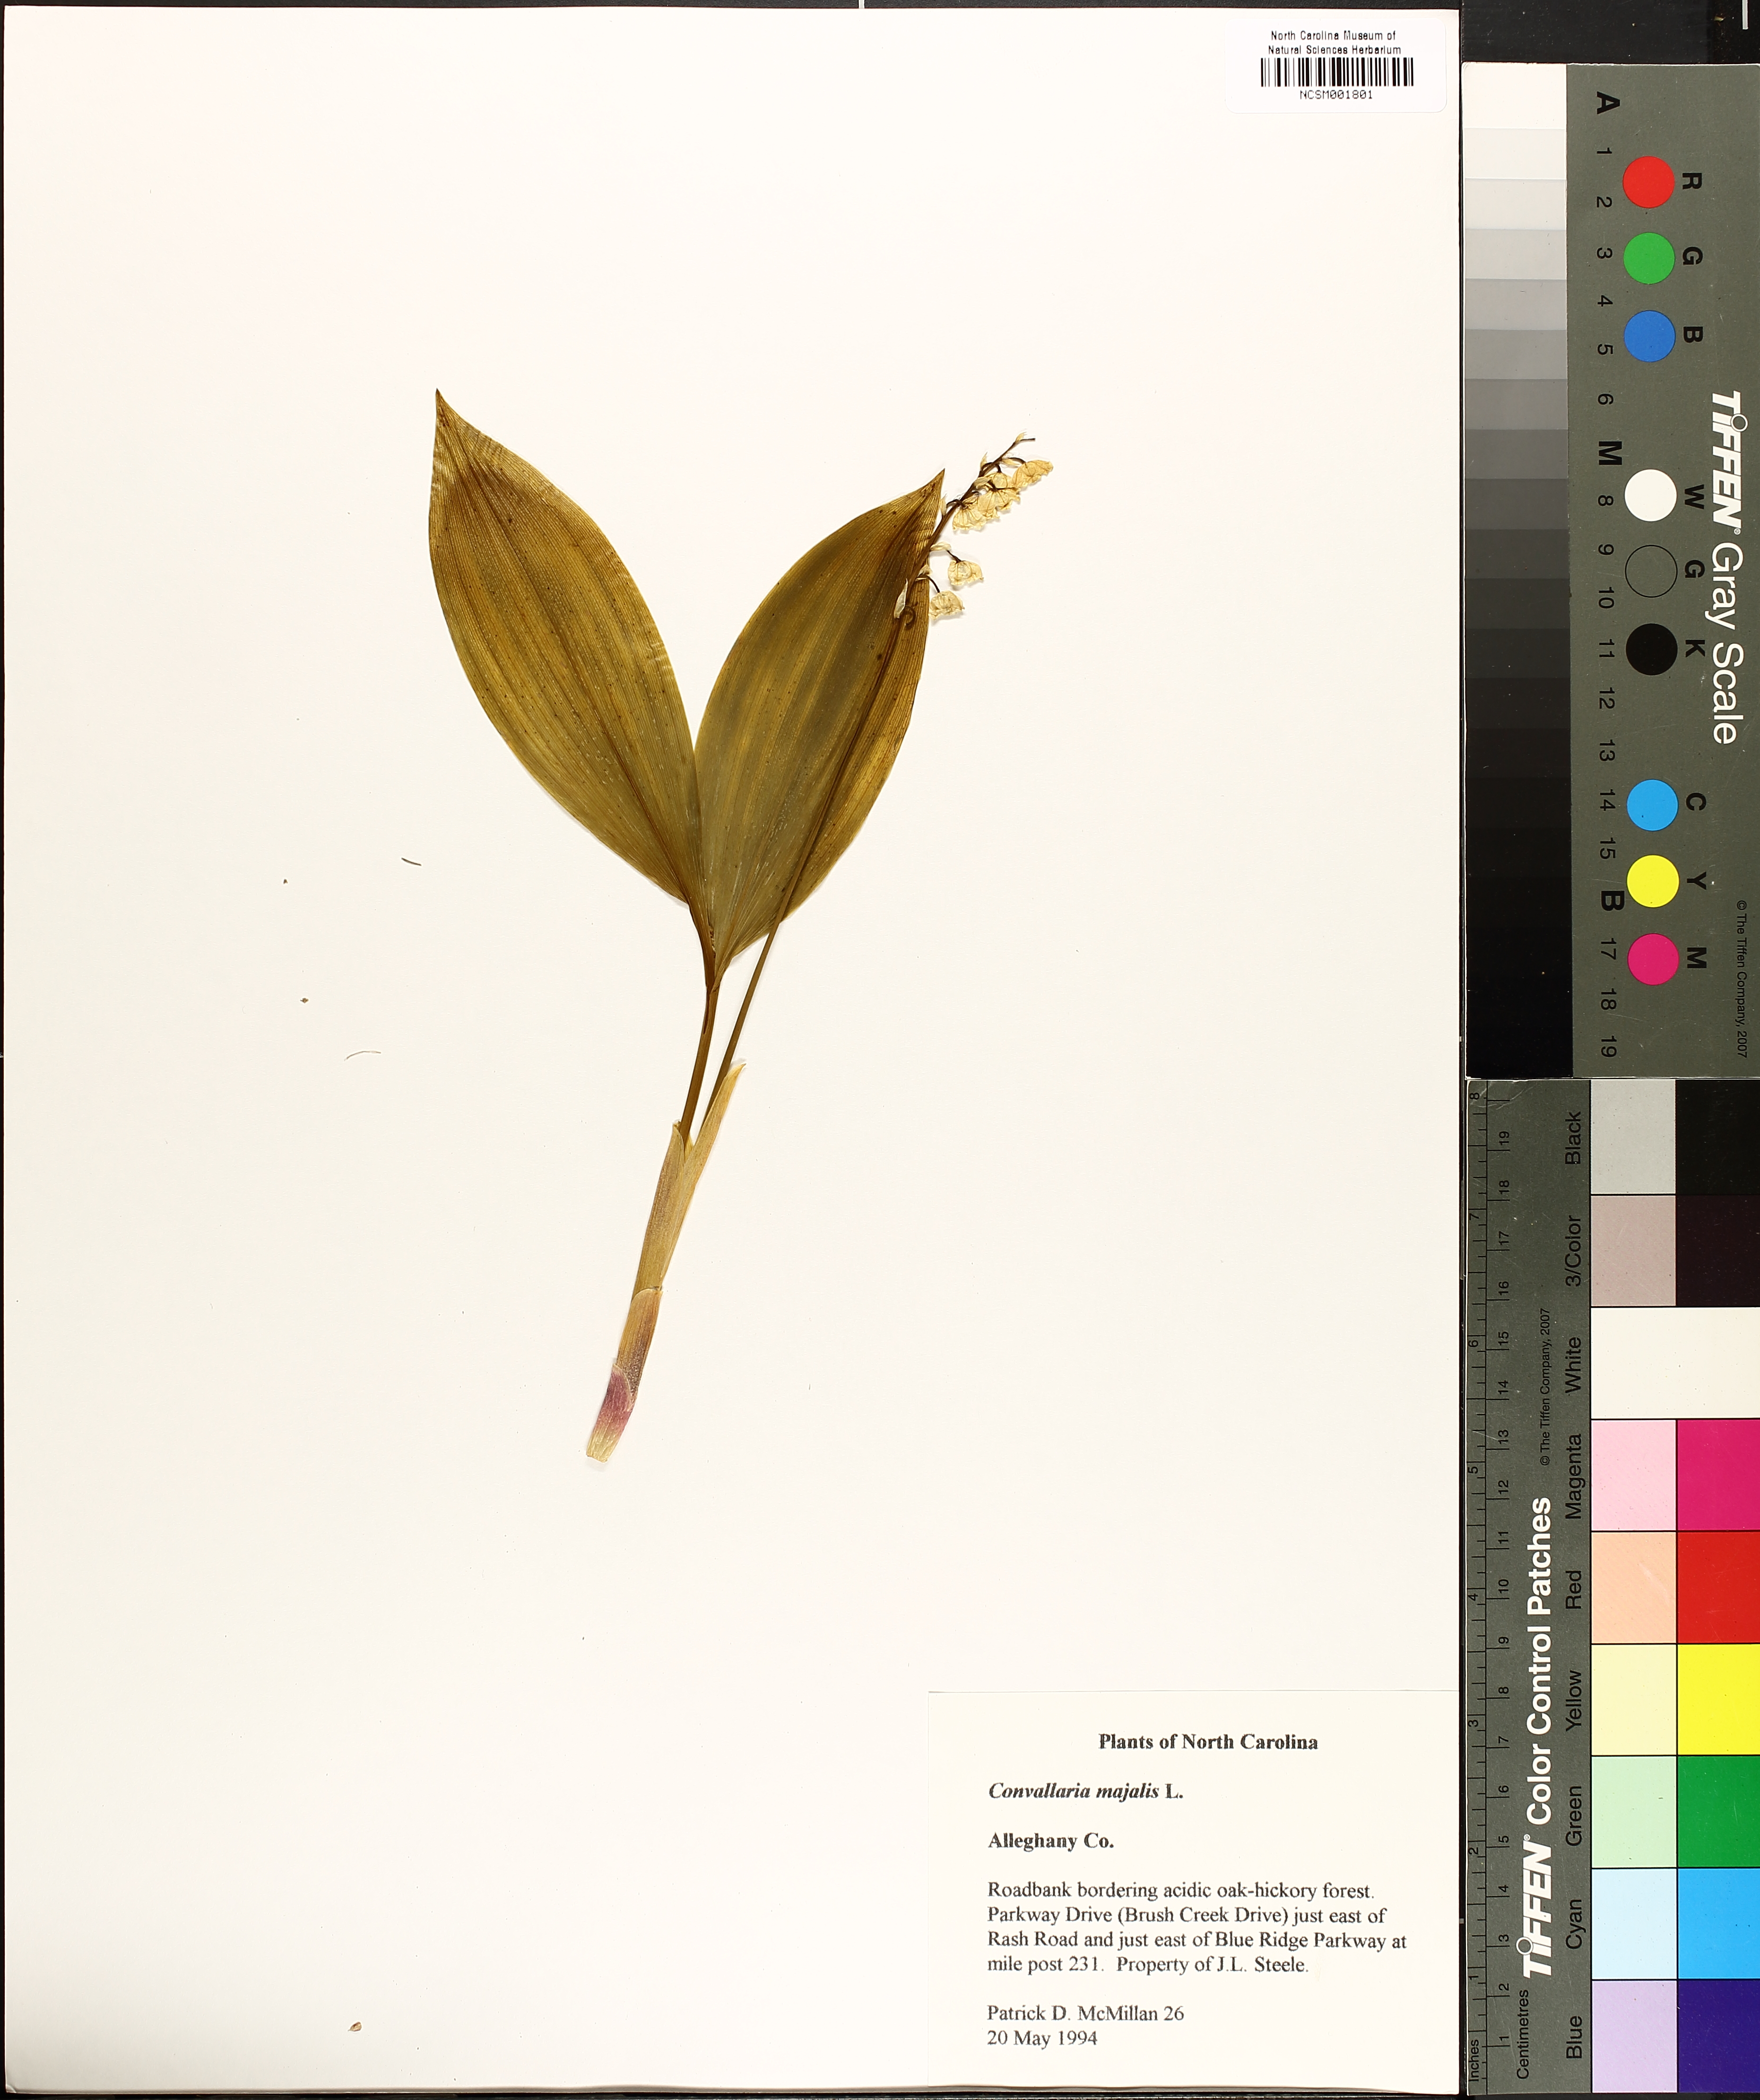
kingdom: Plantae
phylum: Tracheophyta
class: Liliopsida
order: Asparagales
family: Asparagaceae
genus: Convallaria
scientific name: Convallaria majalis
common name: Lily-of-the-valley
